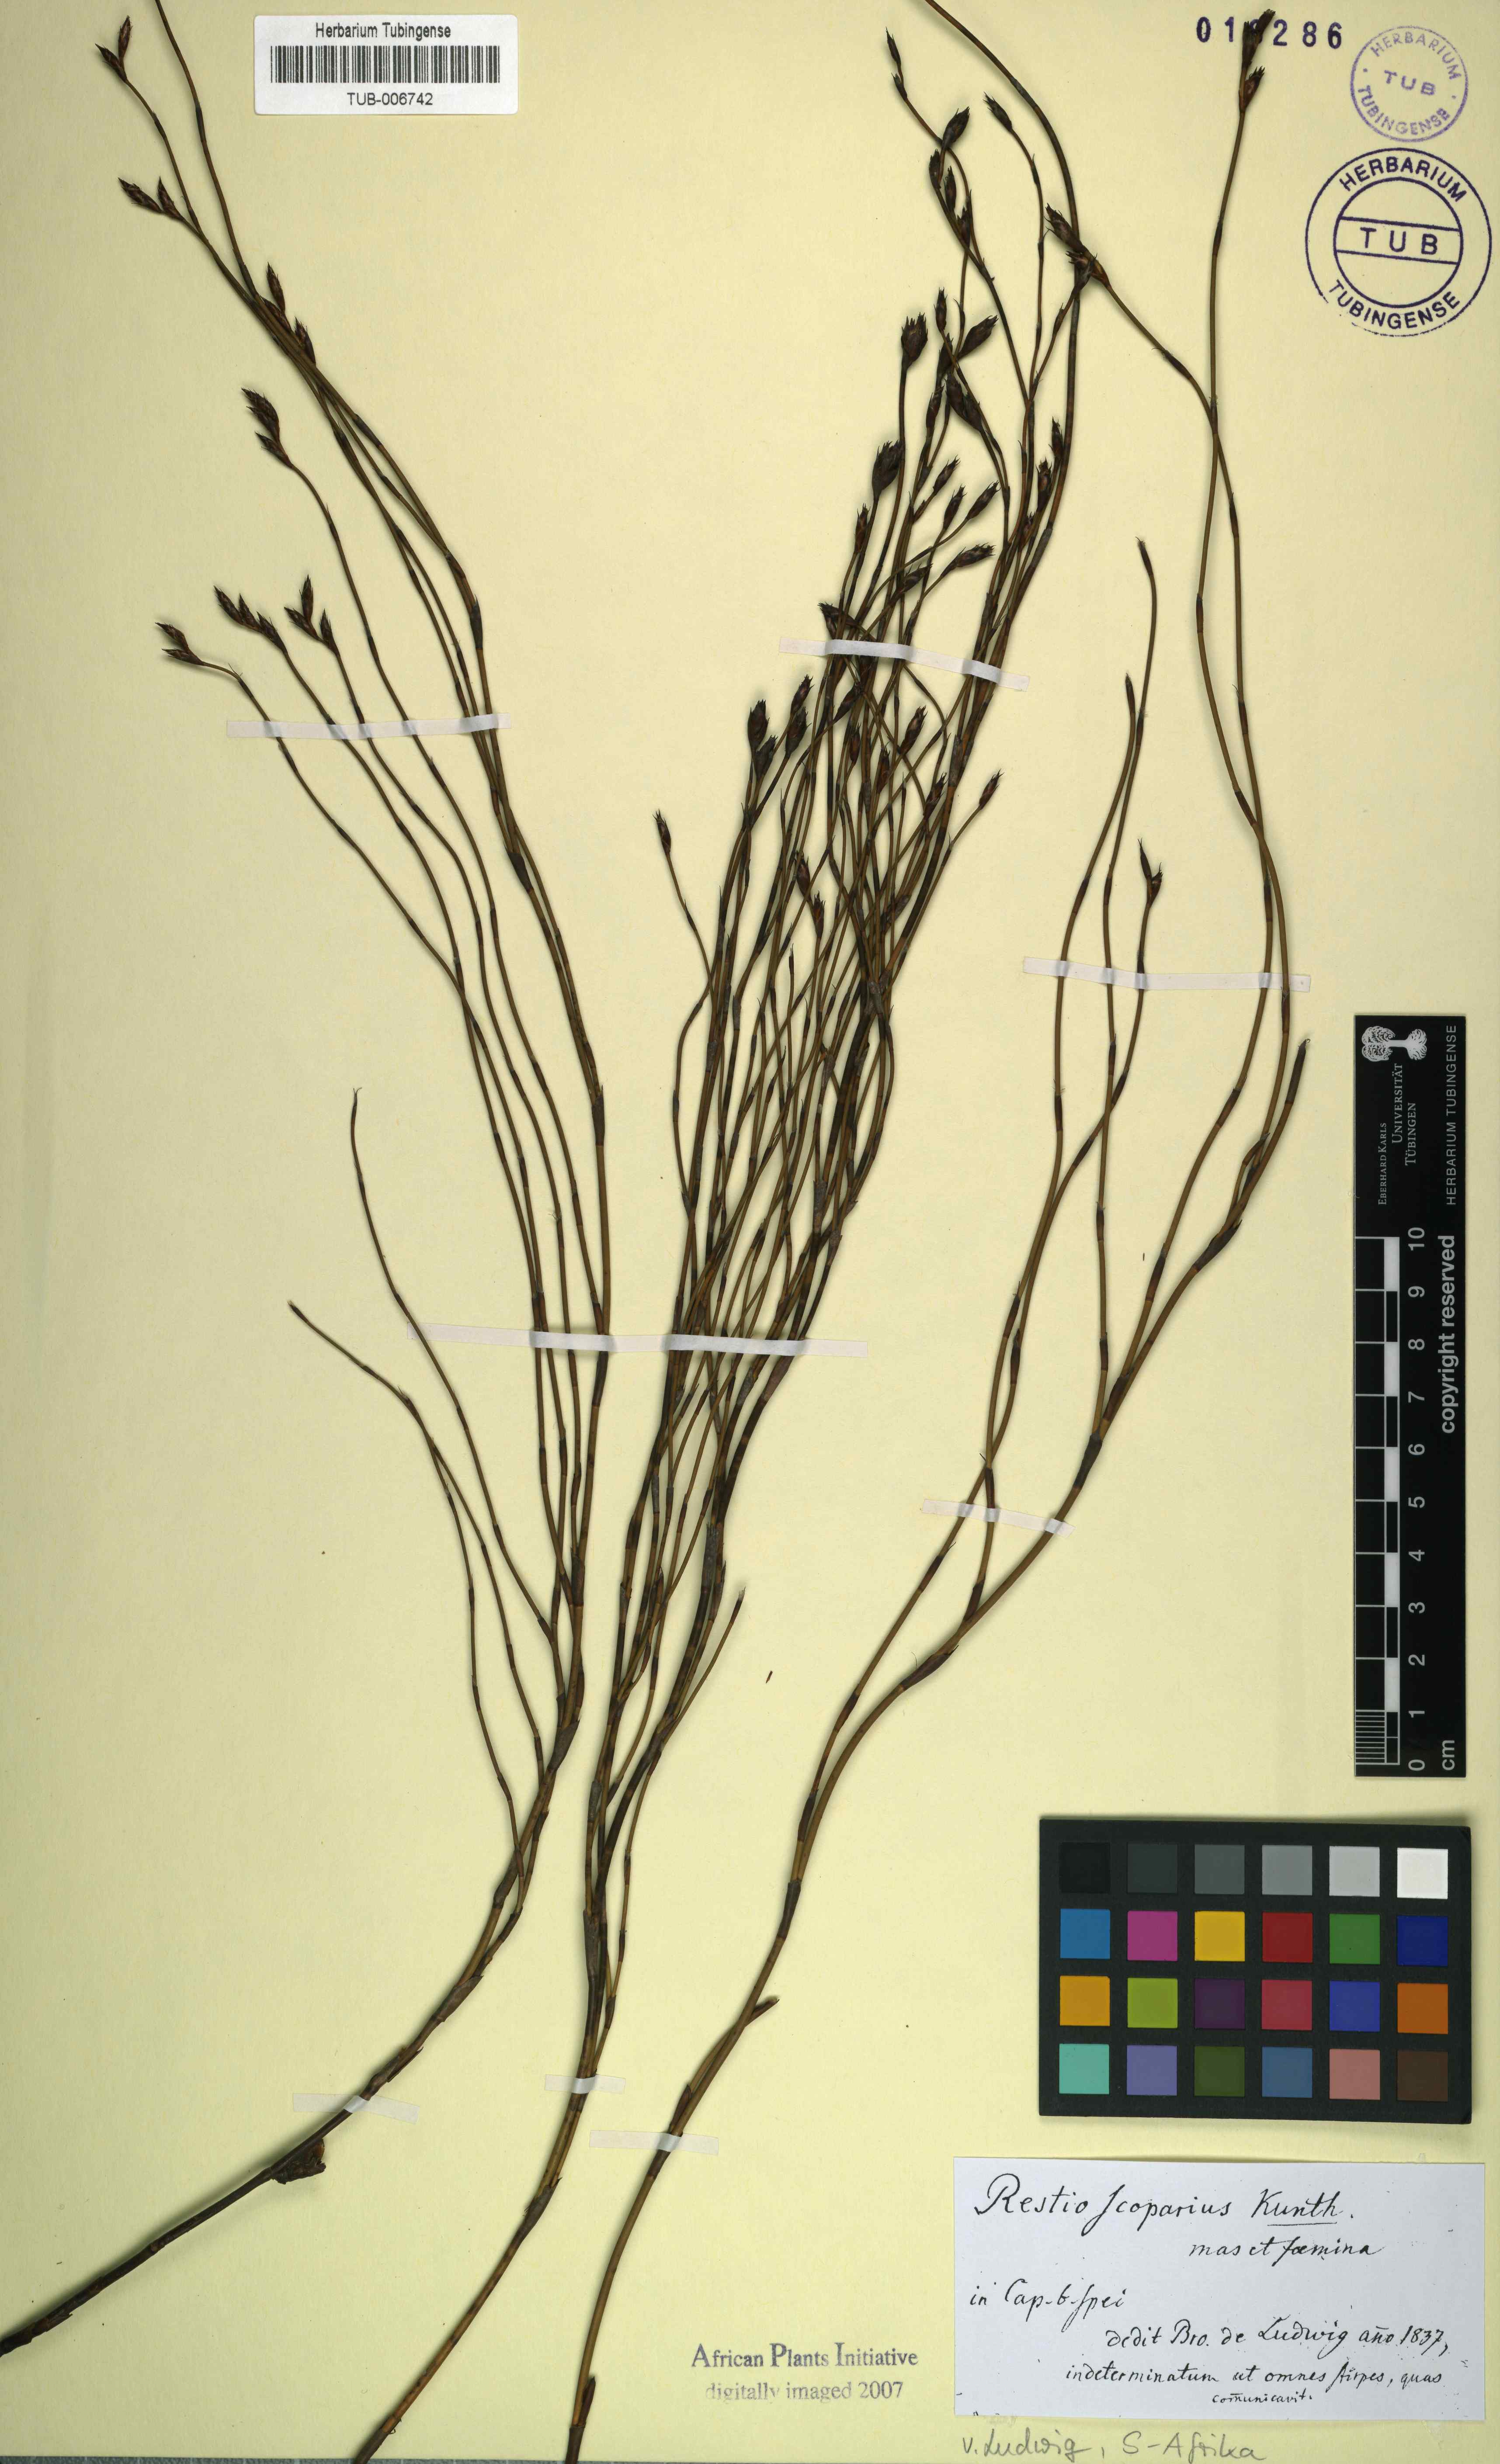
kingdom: Plantae
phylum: Tracheophyta
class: Liliopsida
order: Poales
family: Restionaceae
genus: Restio
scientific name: Restio sieberi
